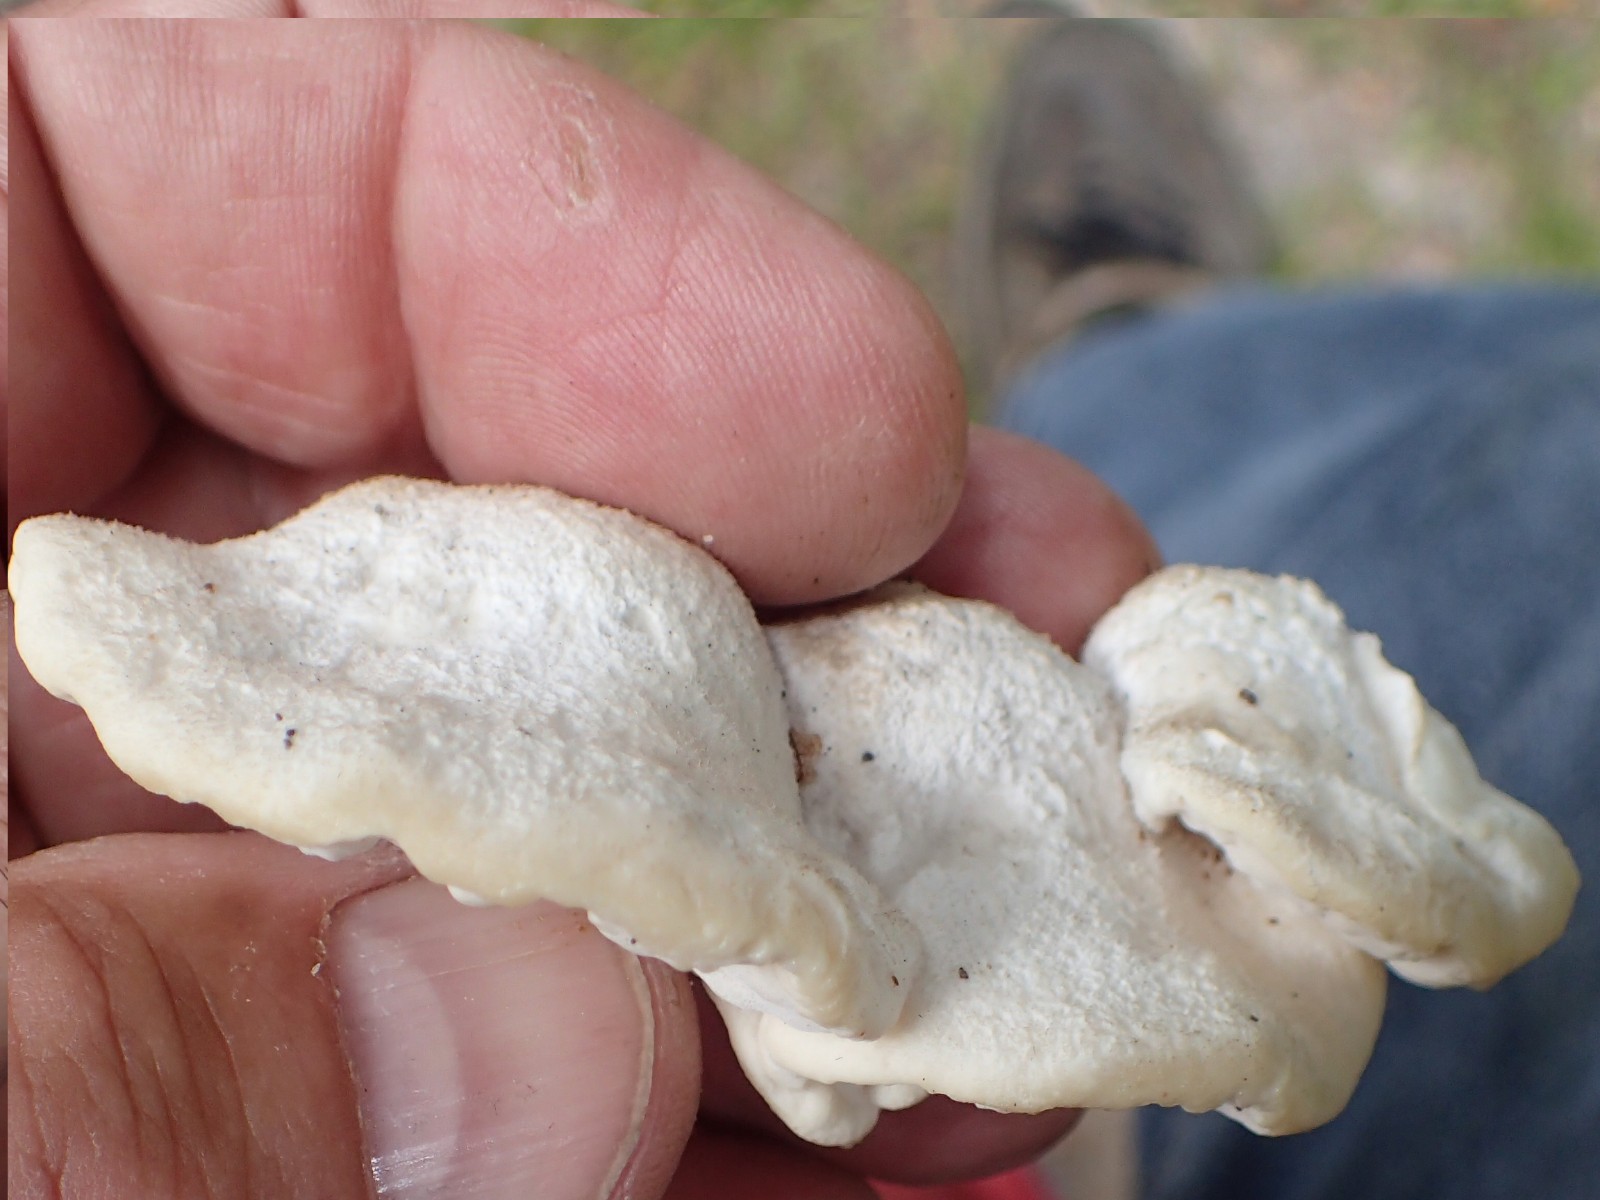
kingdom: Fungi
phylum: Basidiomycota
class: Agaricomycetes
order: Polyporales
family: Incrustoporiaceae
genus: Tyromyces
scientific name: Tyromyces chioneus
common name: stor blødporesvamp
